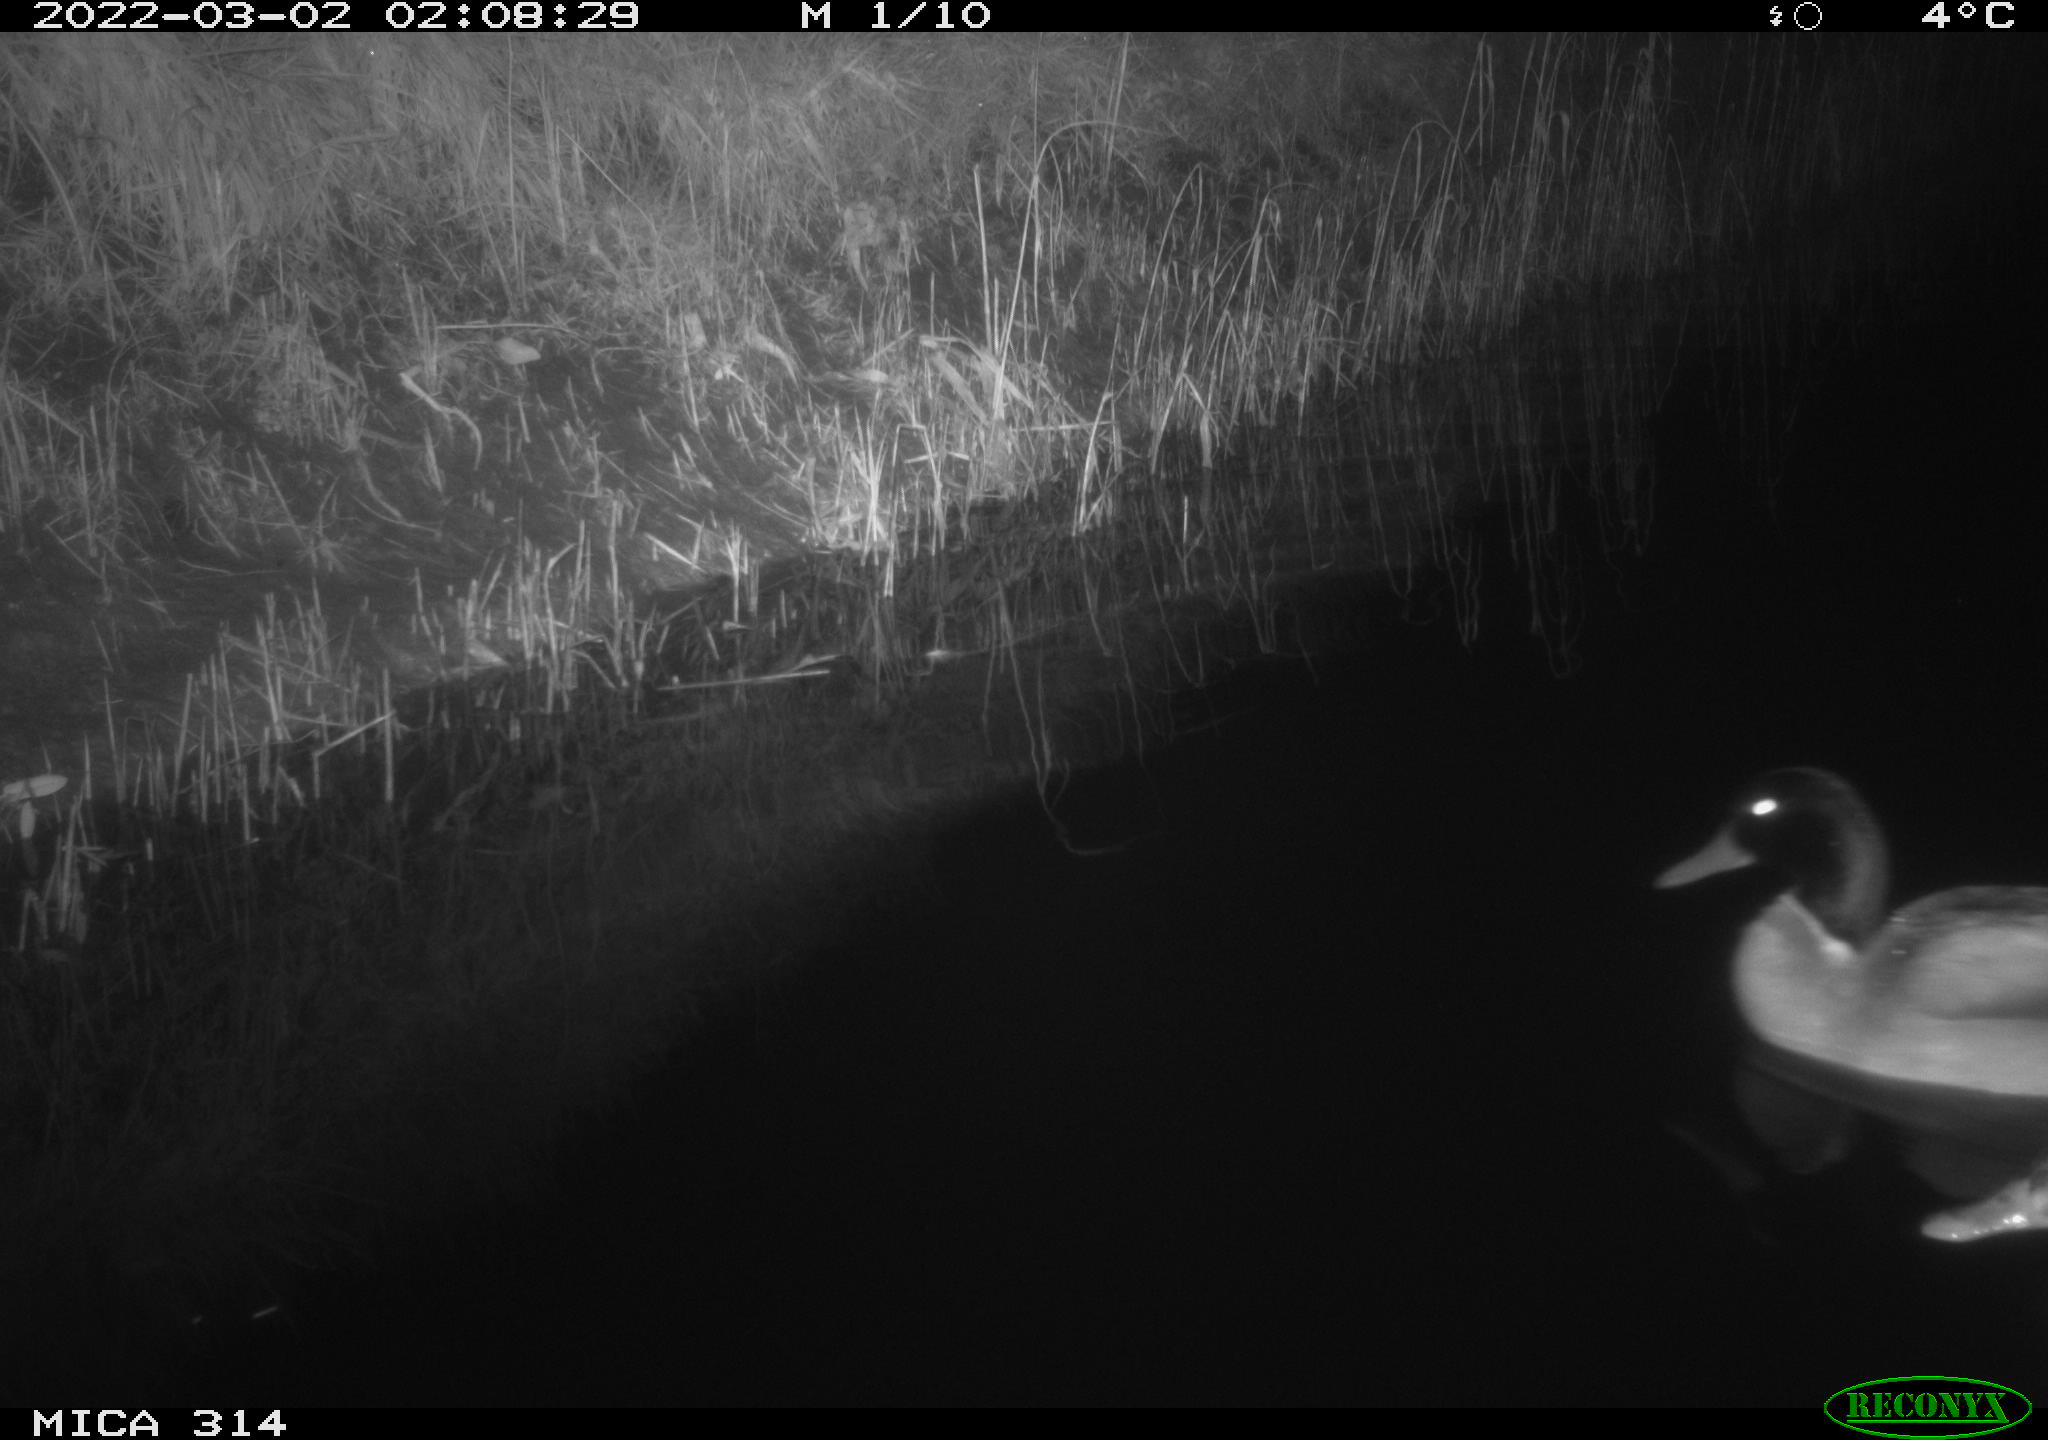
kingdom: Animalia
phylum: Chordata
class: Aves
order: Anseriformes
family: Anatidae
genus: Anas
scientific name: Anas platyrhynchos
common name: Mallard
